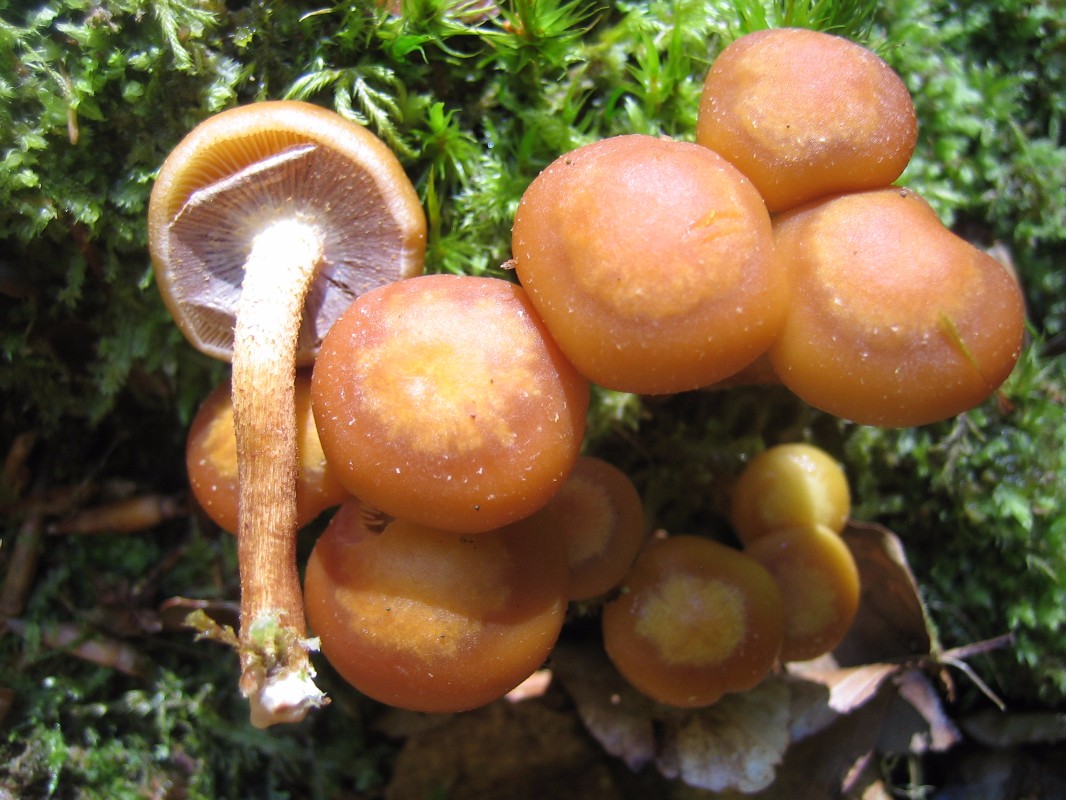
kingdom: Fungi
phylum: Basidiomycota
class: Agaricomycetes
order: Agaricales
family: Strophariaceae
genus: Kuehneromyces
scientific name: Kuehneromyces mutabilis
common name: foranderlig skælhat
